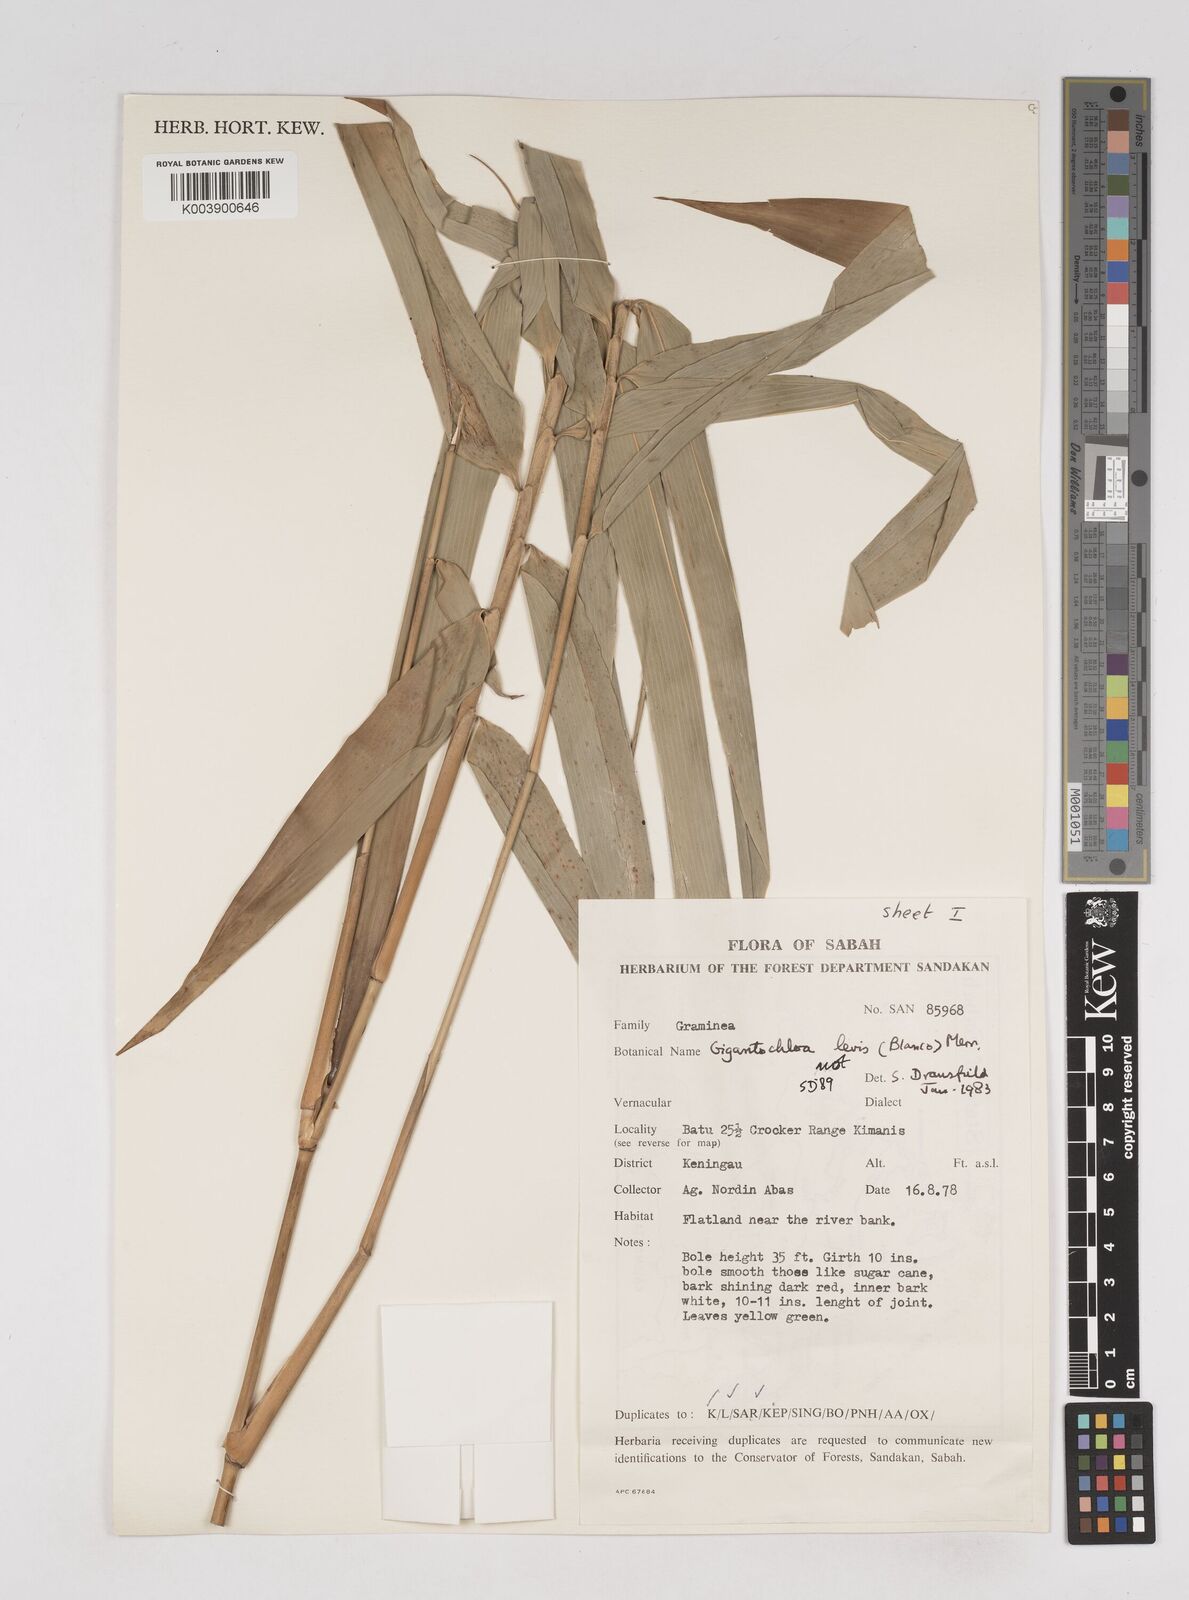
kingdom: Plantae
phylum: Tracheophyta
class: Liliopsida
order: Poales
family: Poaceae
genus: Gigantochloa
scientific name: Gigantochloa
